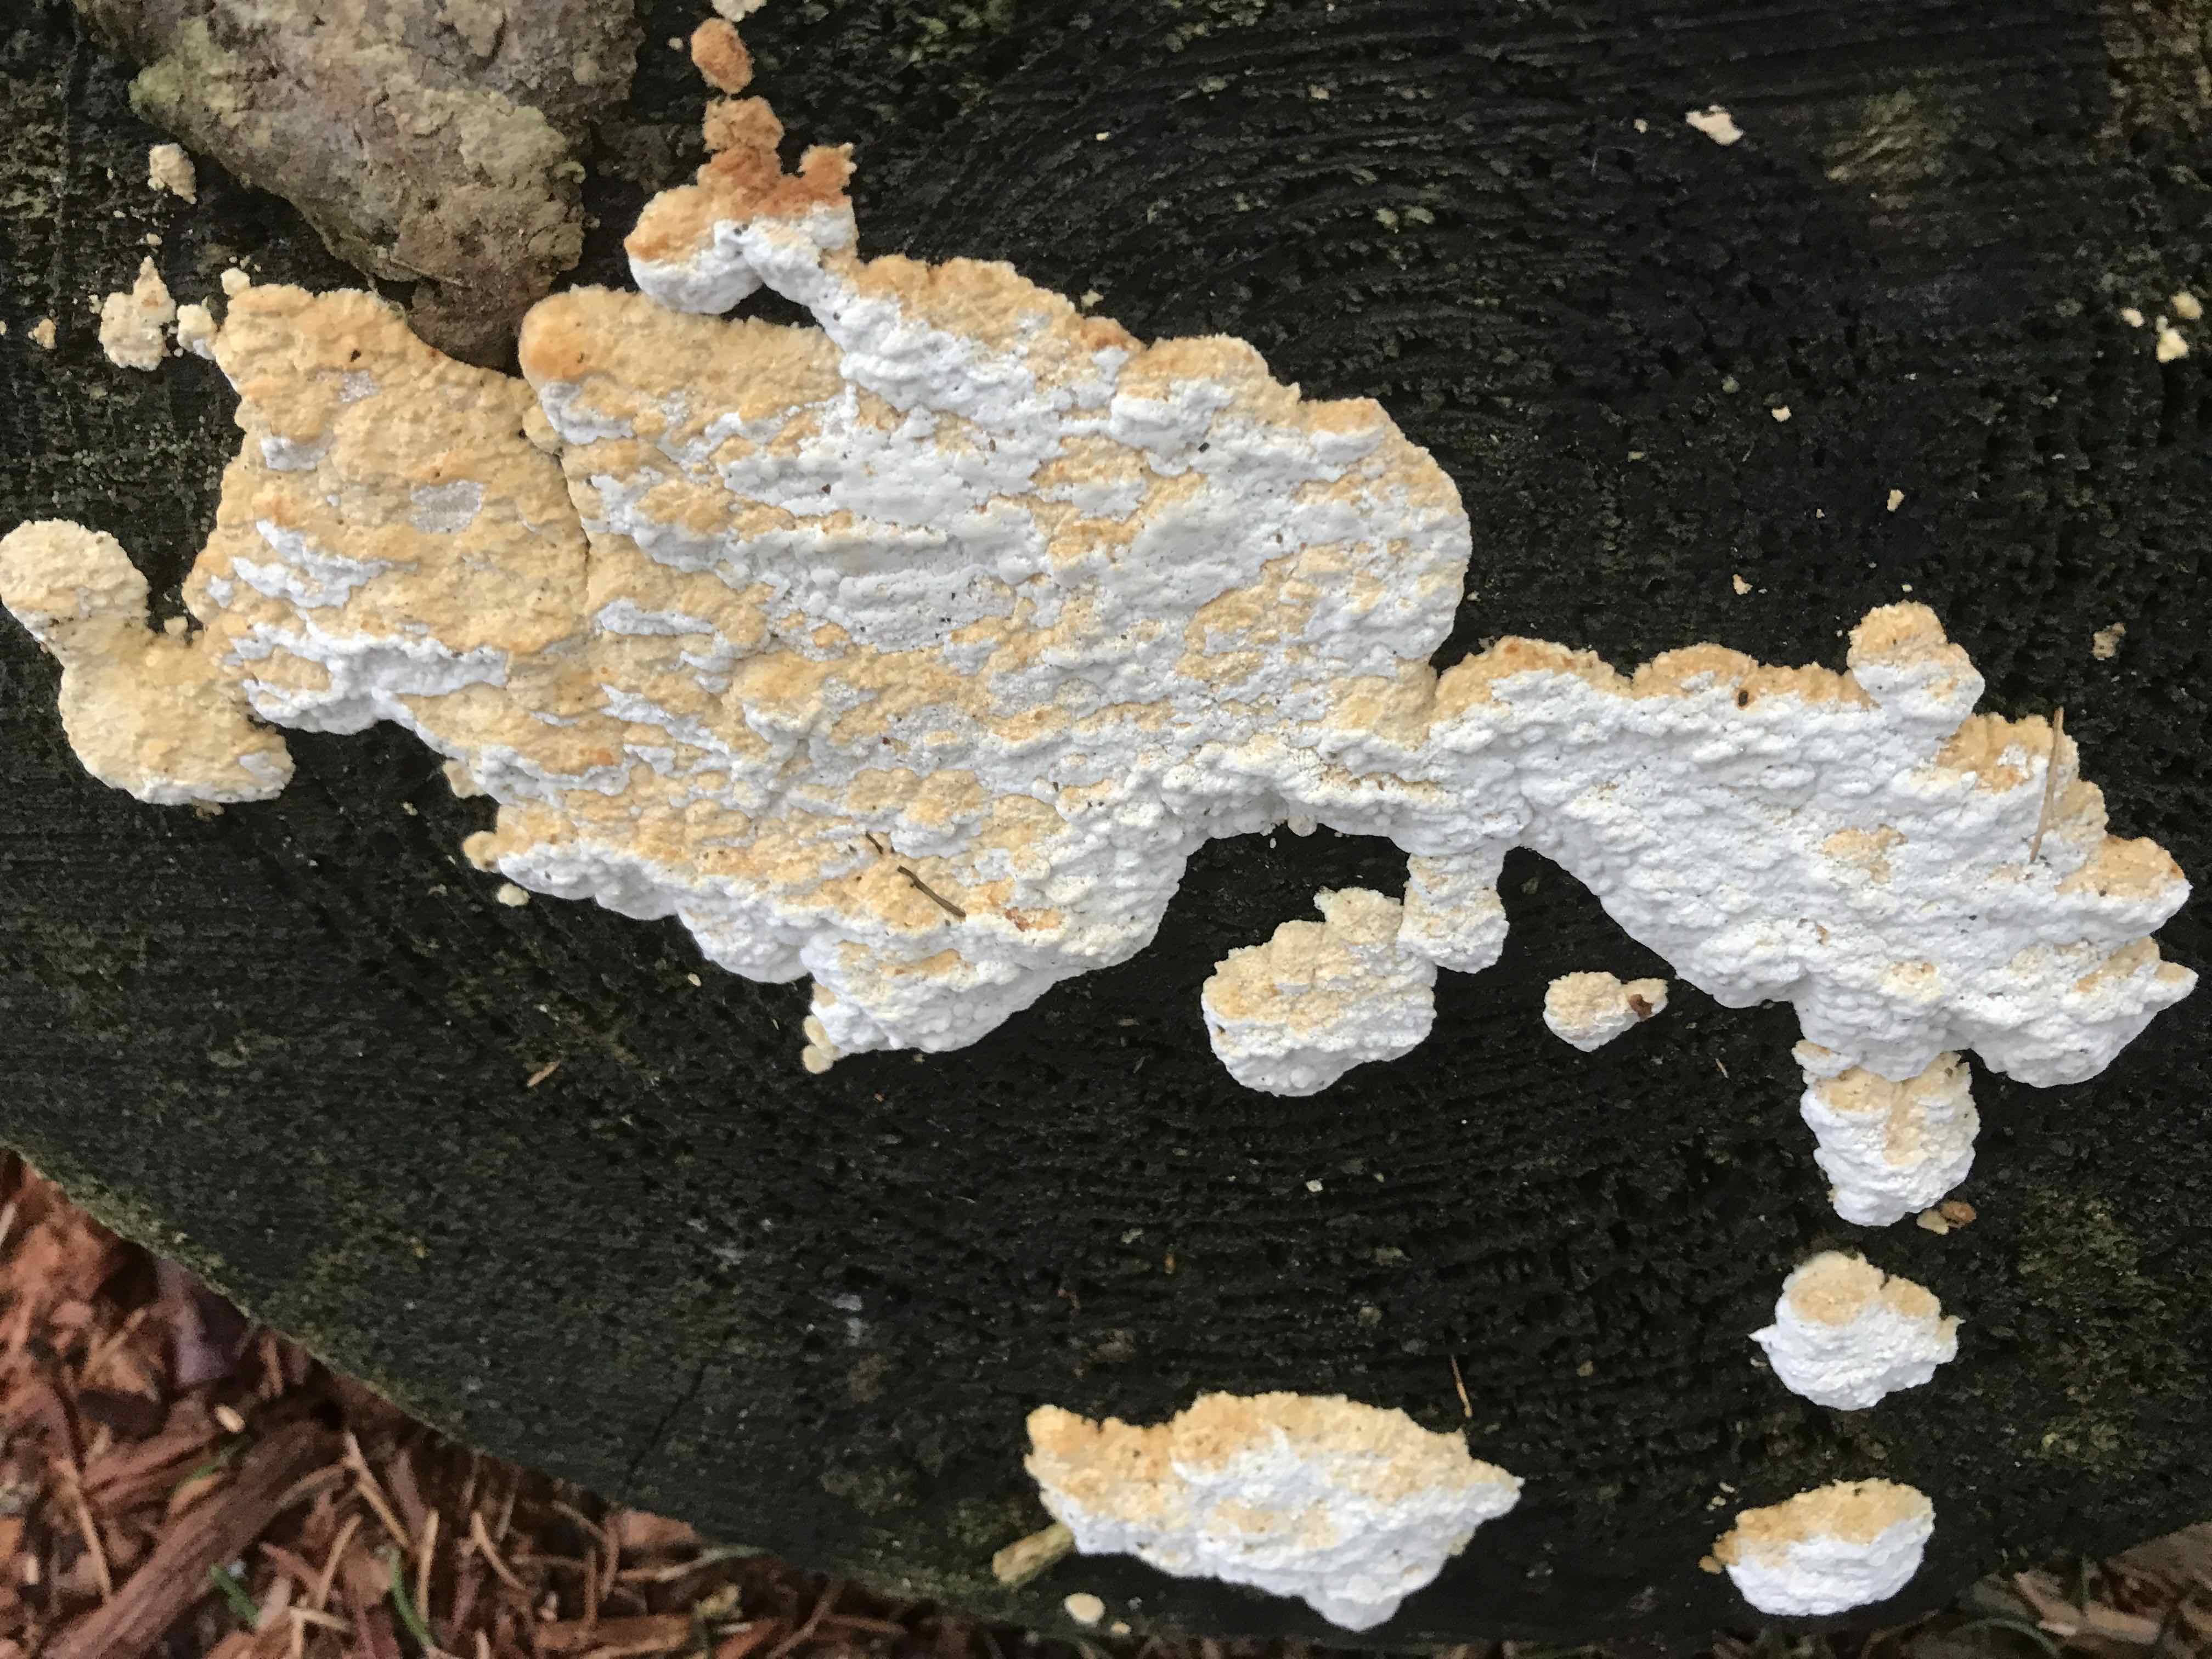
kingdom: Fungi
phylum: Basidiomycota
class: Agaricomycetes
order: Polyporales
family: Fomitopsidaceae
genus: Neoantrodia
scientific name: Neoantrodia serialis
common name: række-sejporesvamp
